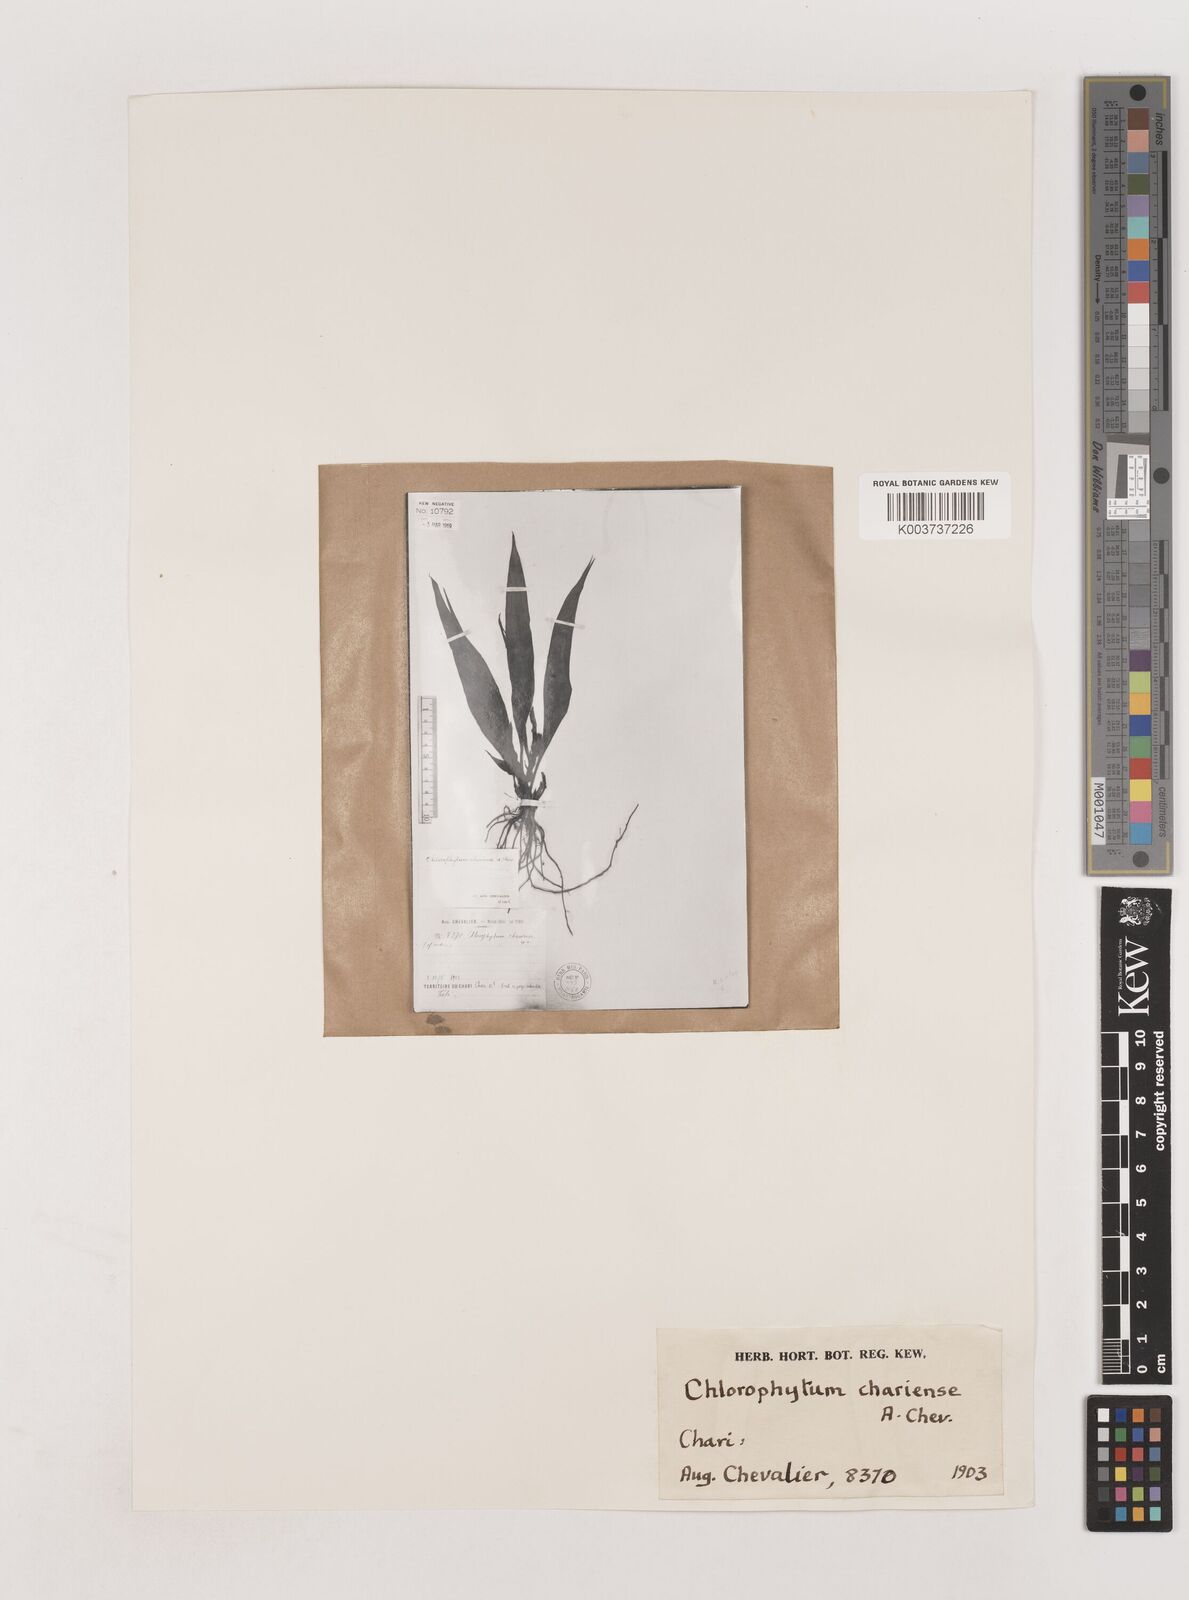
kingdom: Plantae
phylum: Tracheophyta
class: Liliopsida
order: Asparagales
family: Asparagaceae
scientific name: Asparagaceae
